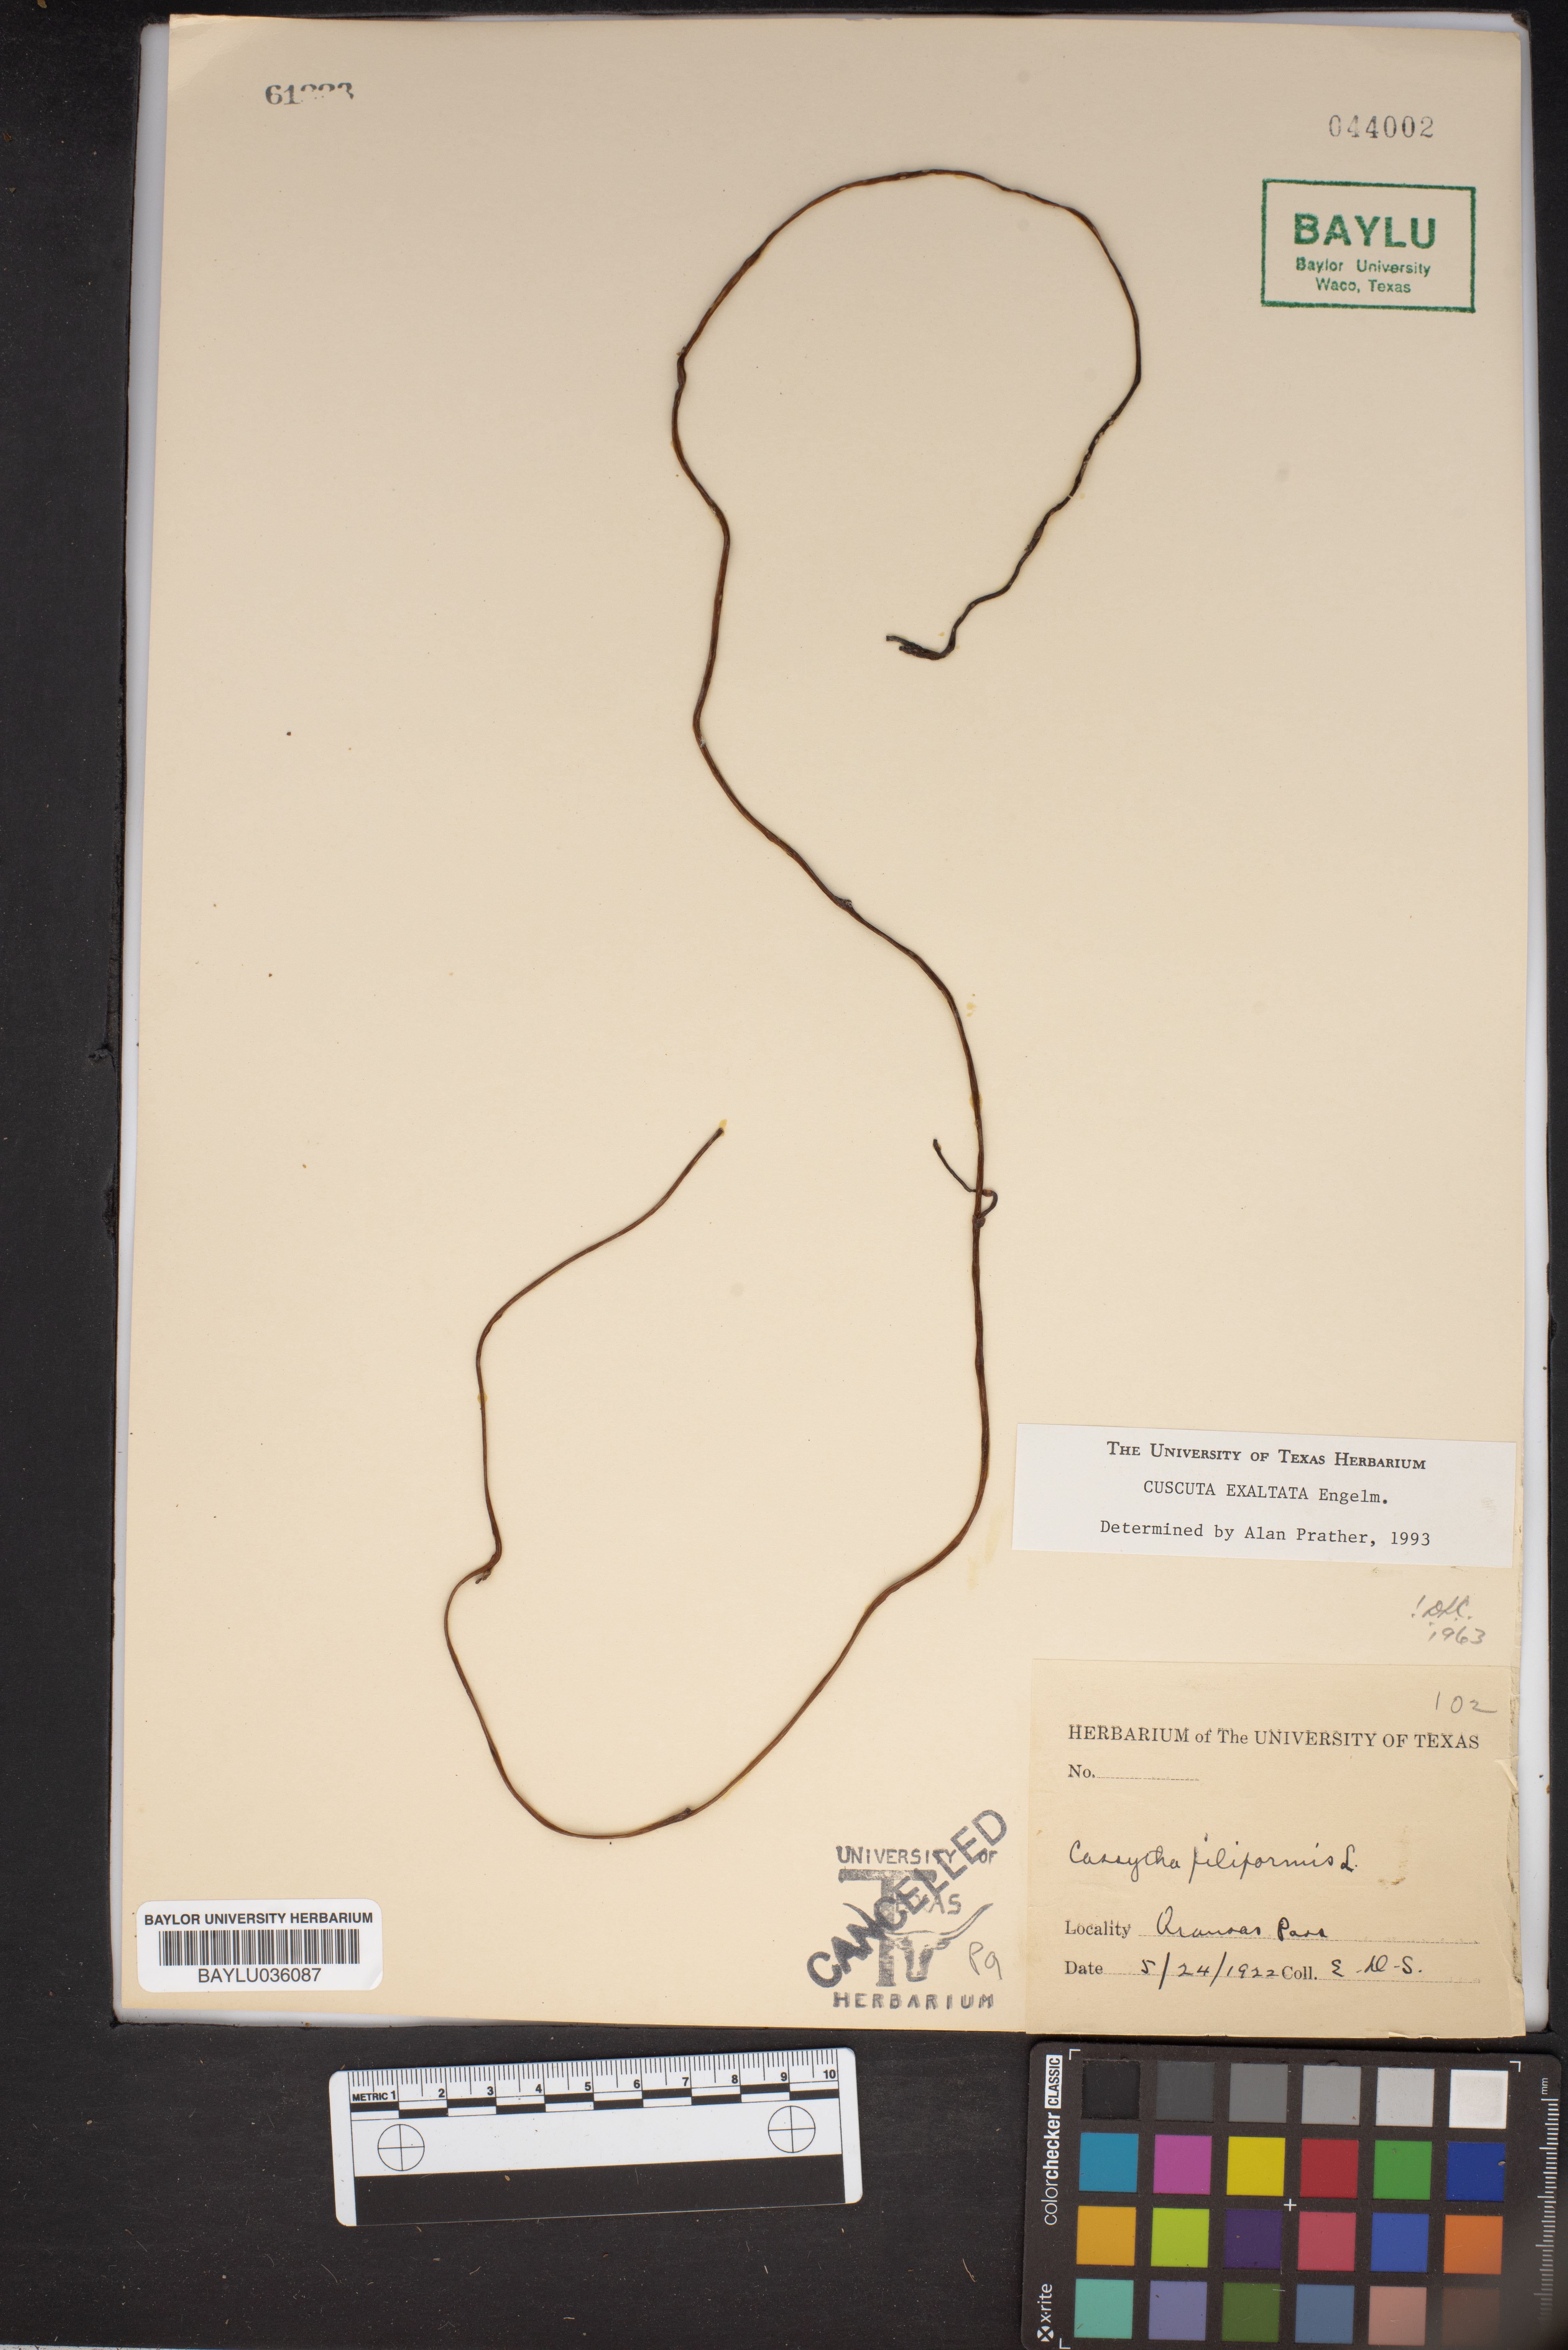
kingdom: Plantae
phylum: Tracheophyta
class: Magnoliopsida
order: Solanales
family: Convolvulaceae
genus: Cuscuta
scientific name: Cuscuta exaltata
